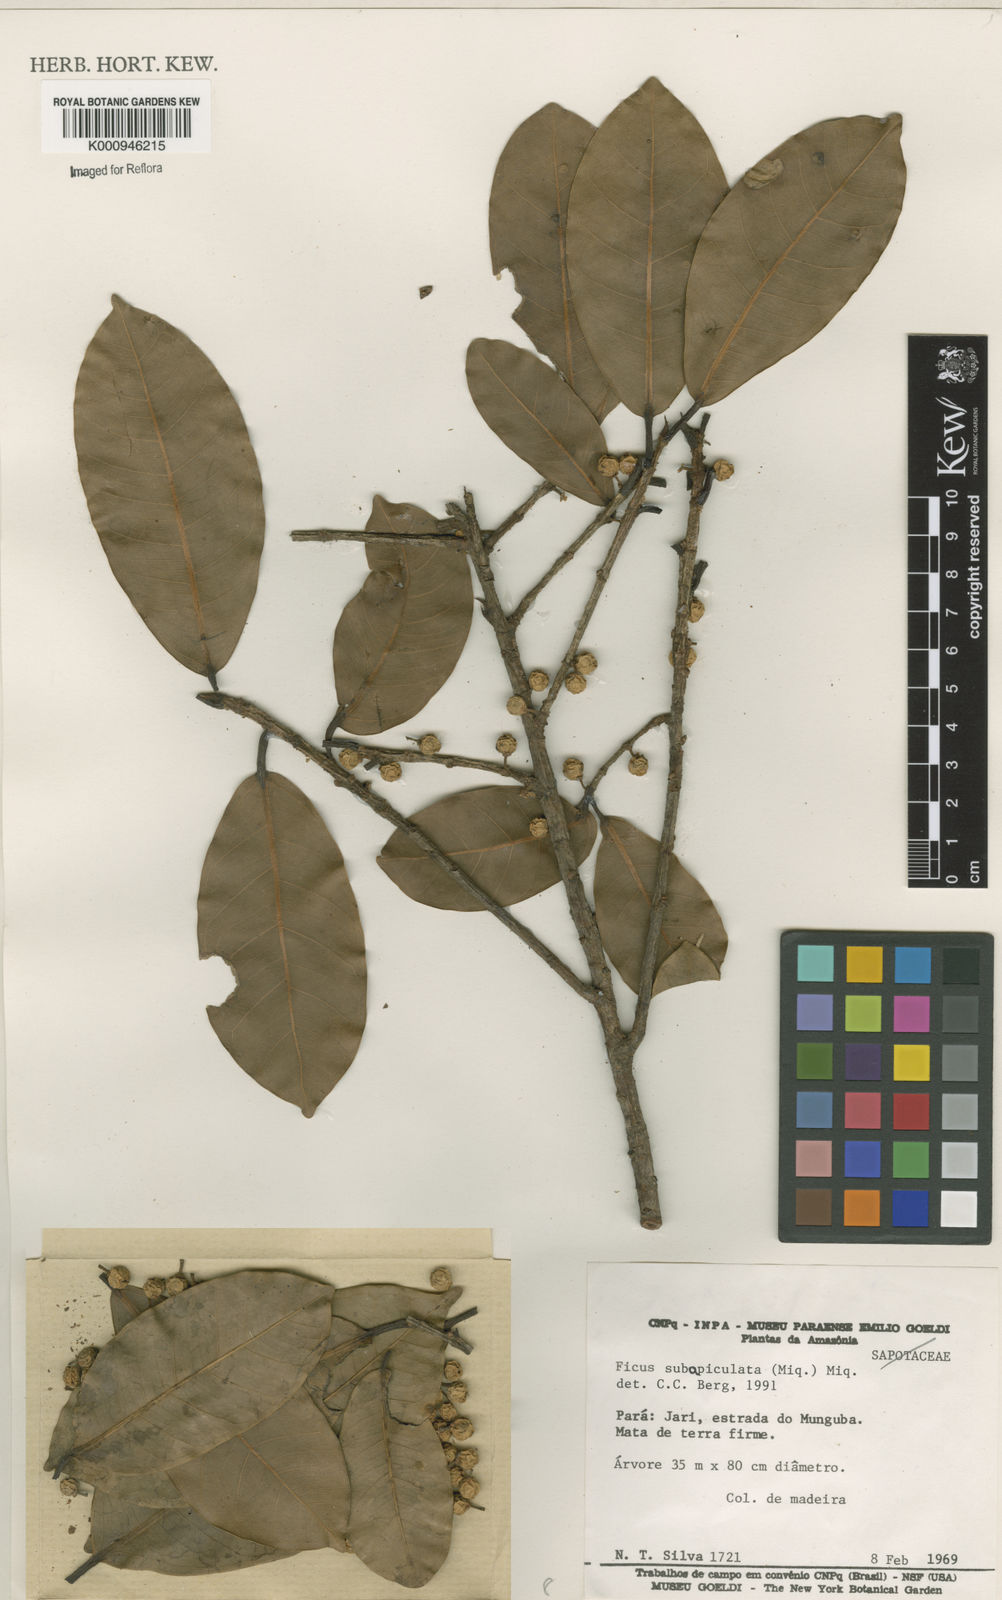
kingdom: Plantae
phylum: Tracheophyta
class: Magnoliopsida
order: Rosales
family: Moraceae
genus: Ficus
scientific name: Ficus americana
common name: Jamaican cherry fig
